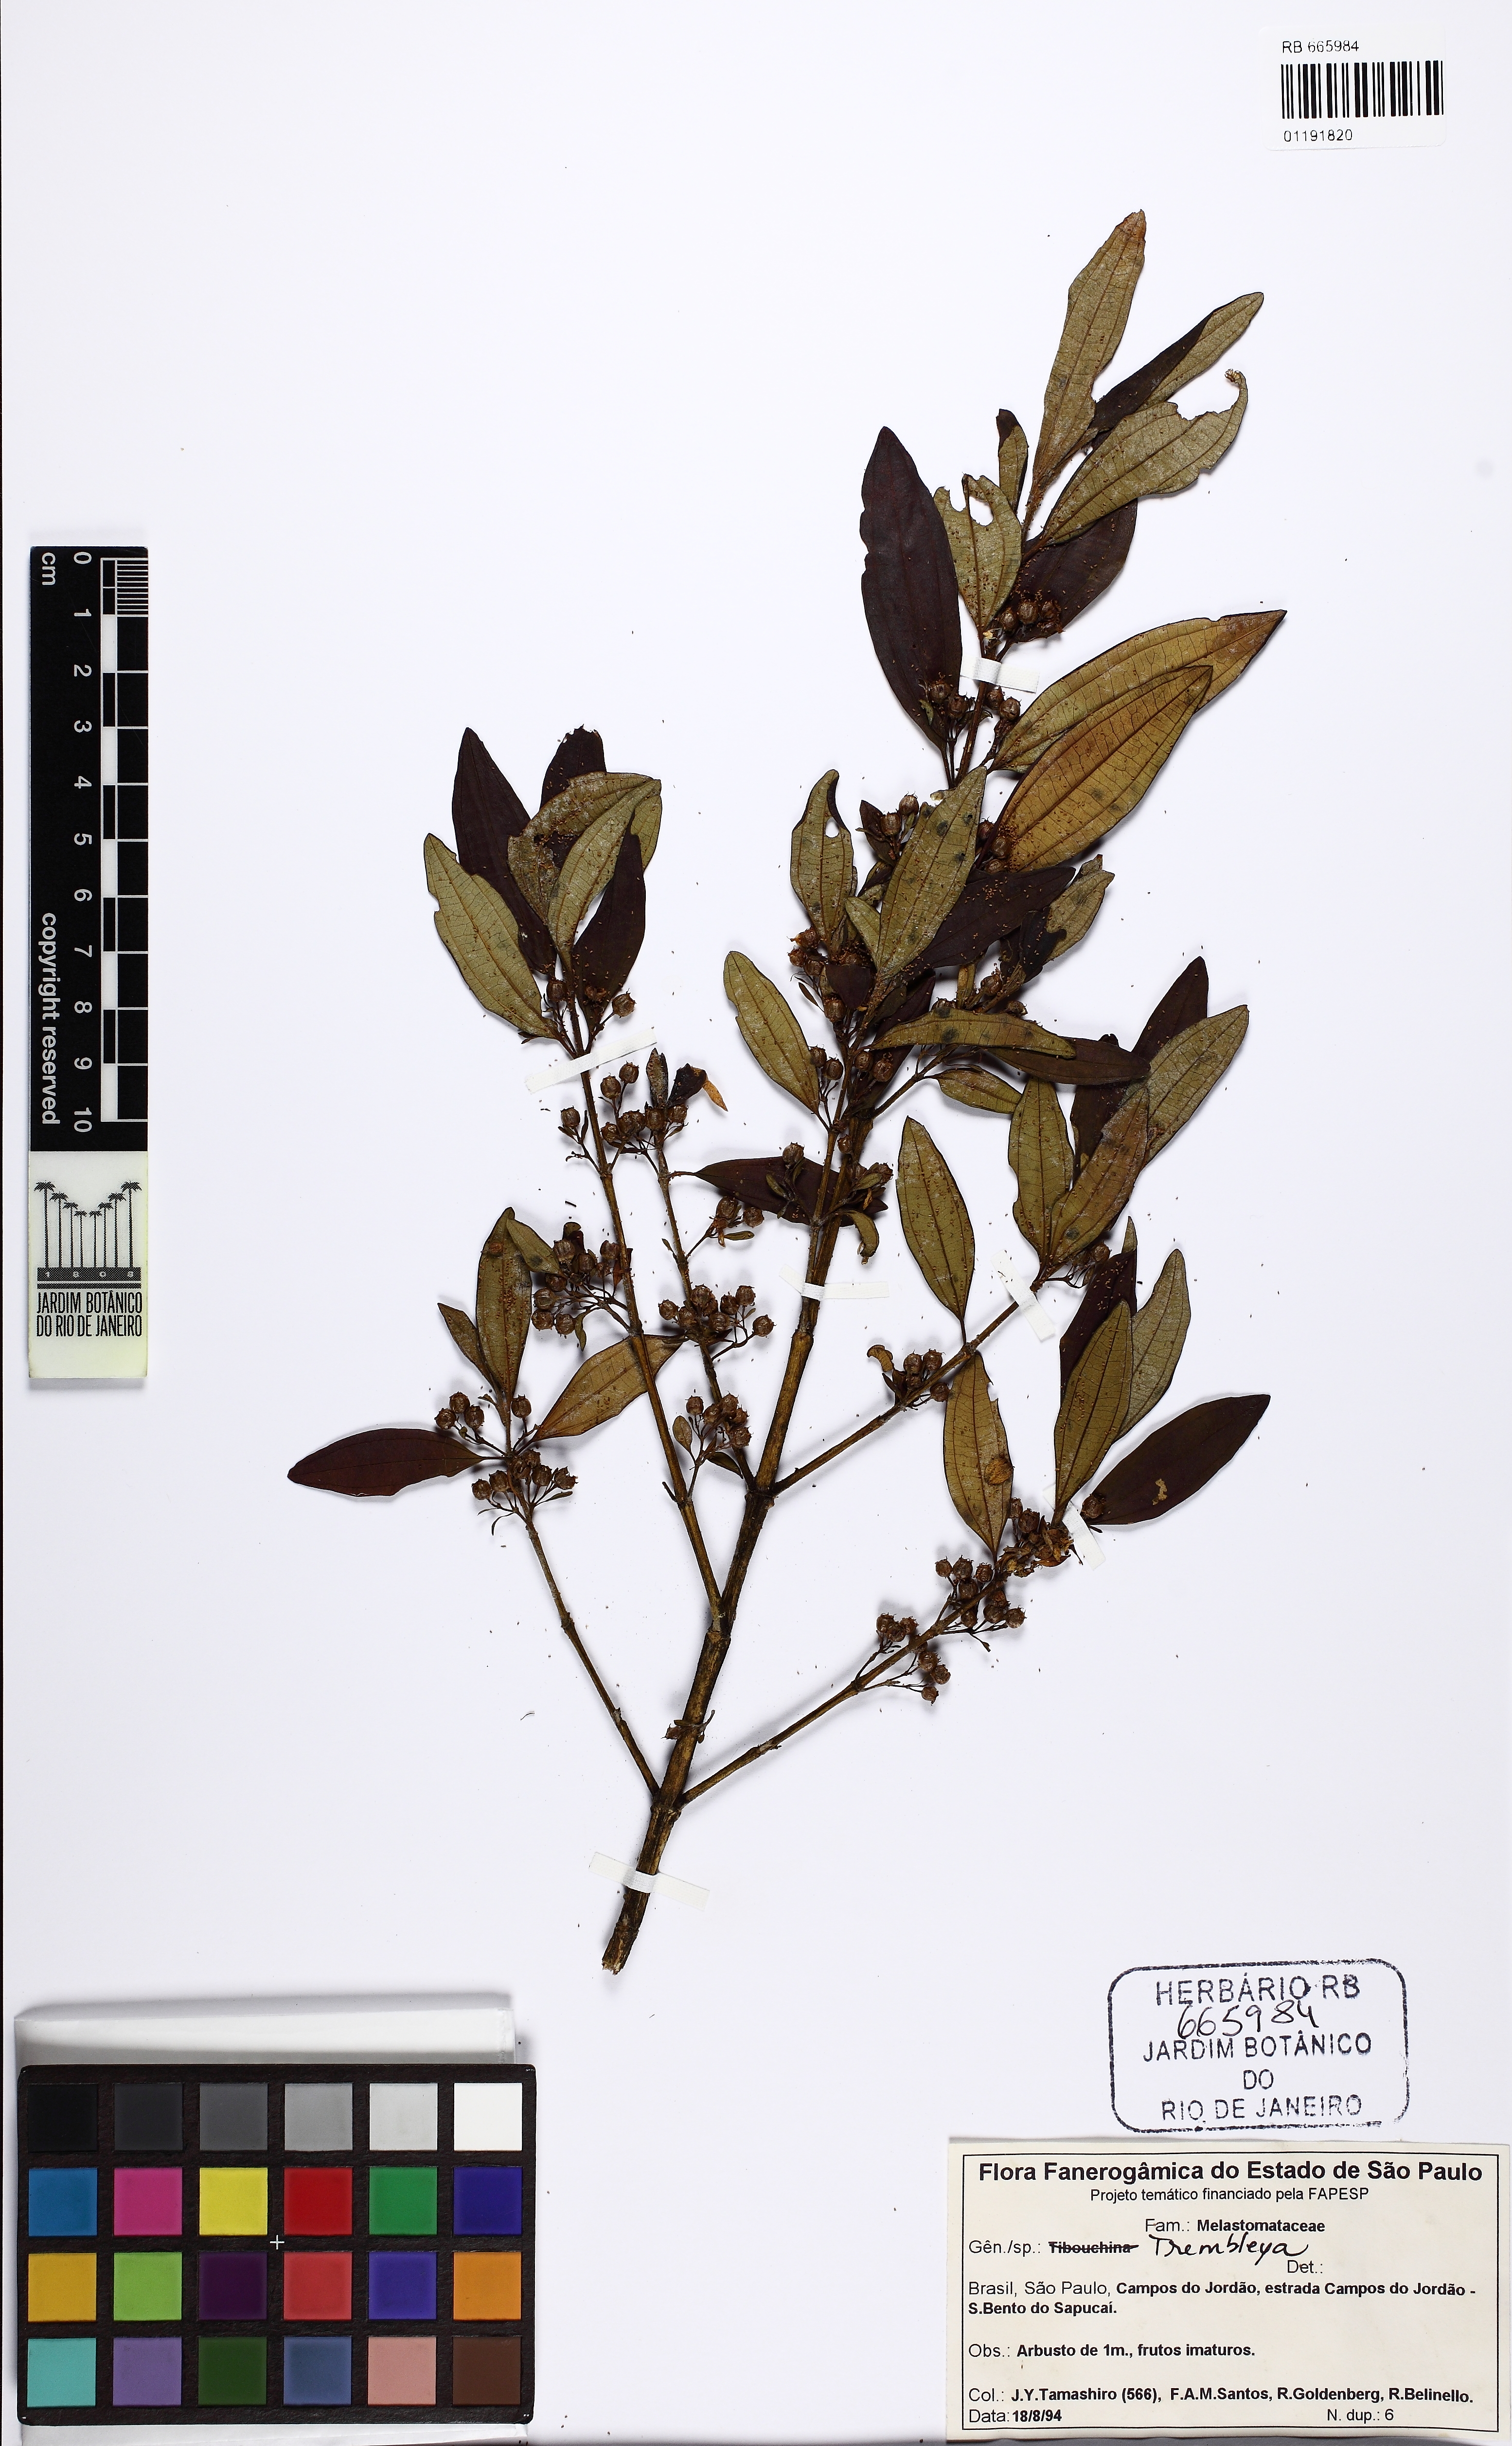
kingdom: Plantae
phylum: Tracheophyta
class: Magnoliopsida
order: Myrtales
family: Melastomataceae
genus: Microlicia
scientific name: Microlicia parviflora
